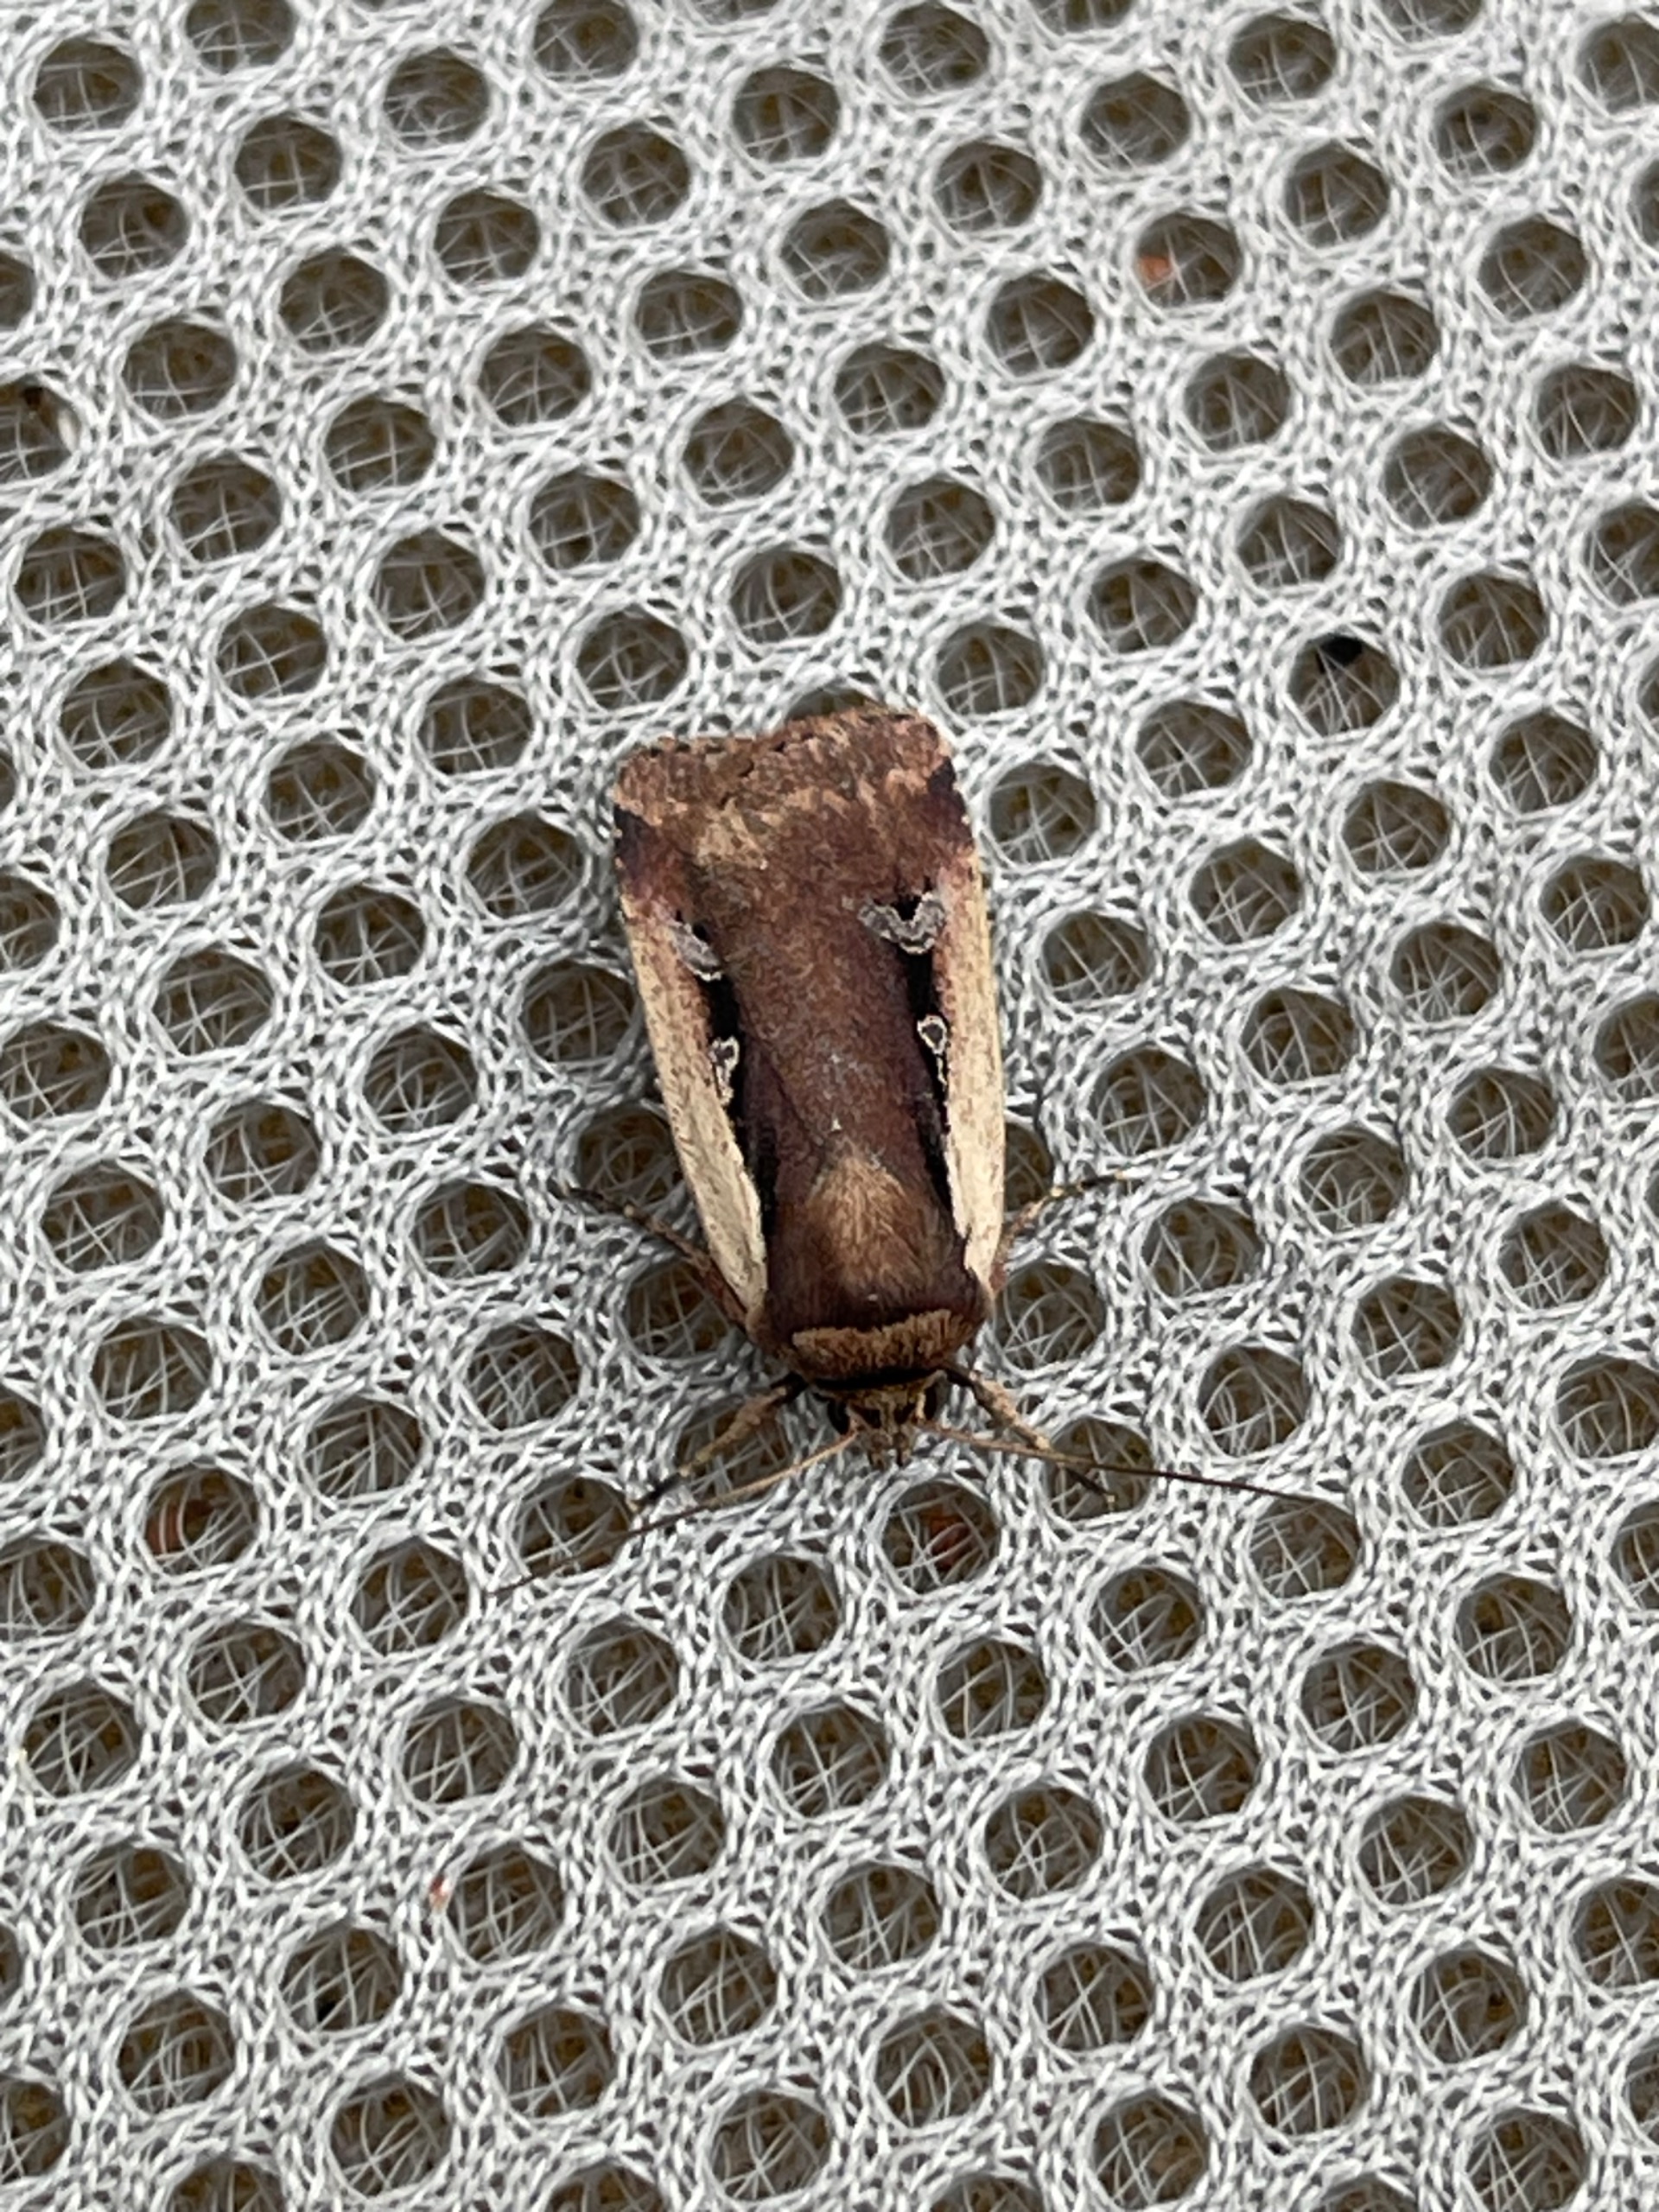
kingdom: Animalia
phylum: Arthropoda
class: Insecta
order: Lepidoptera
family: Noctuidae
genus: Ochropleura
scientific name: Ochropleura plecta
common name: Hvidrandet jordugle
